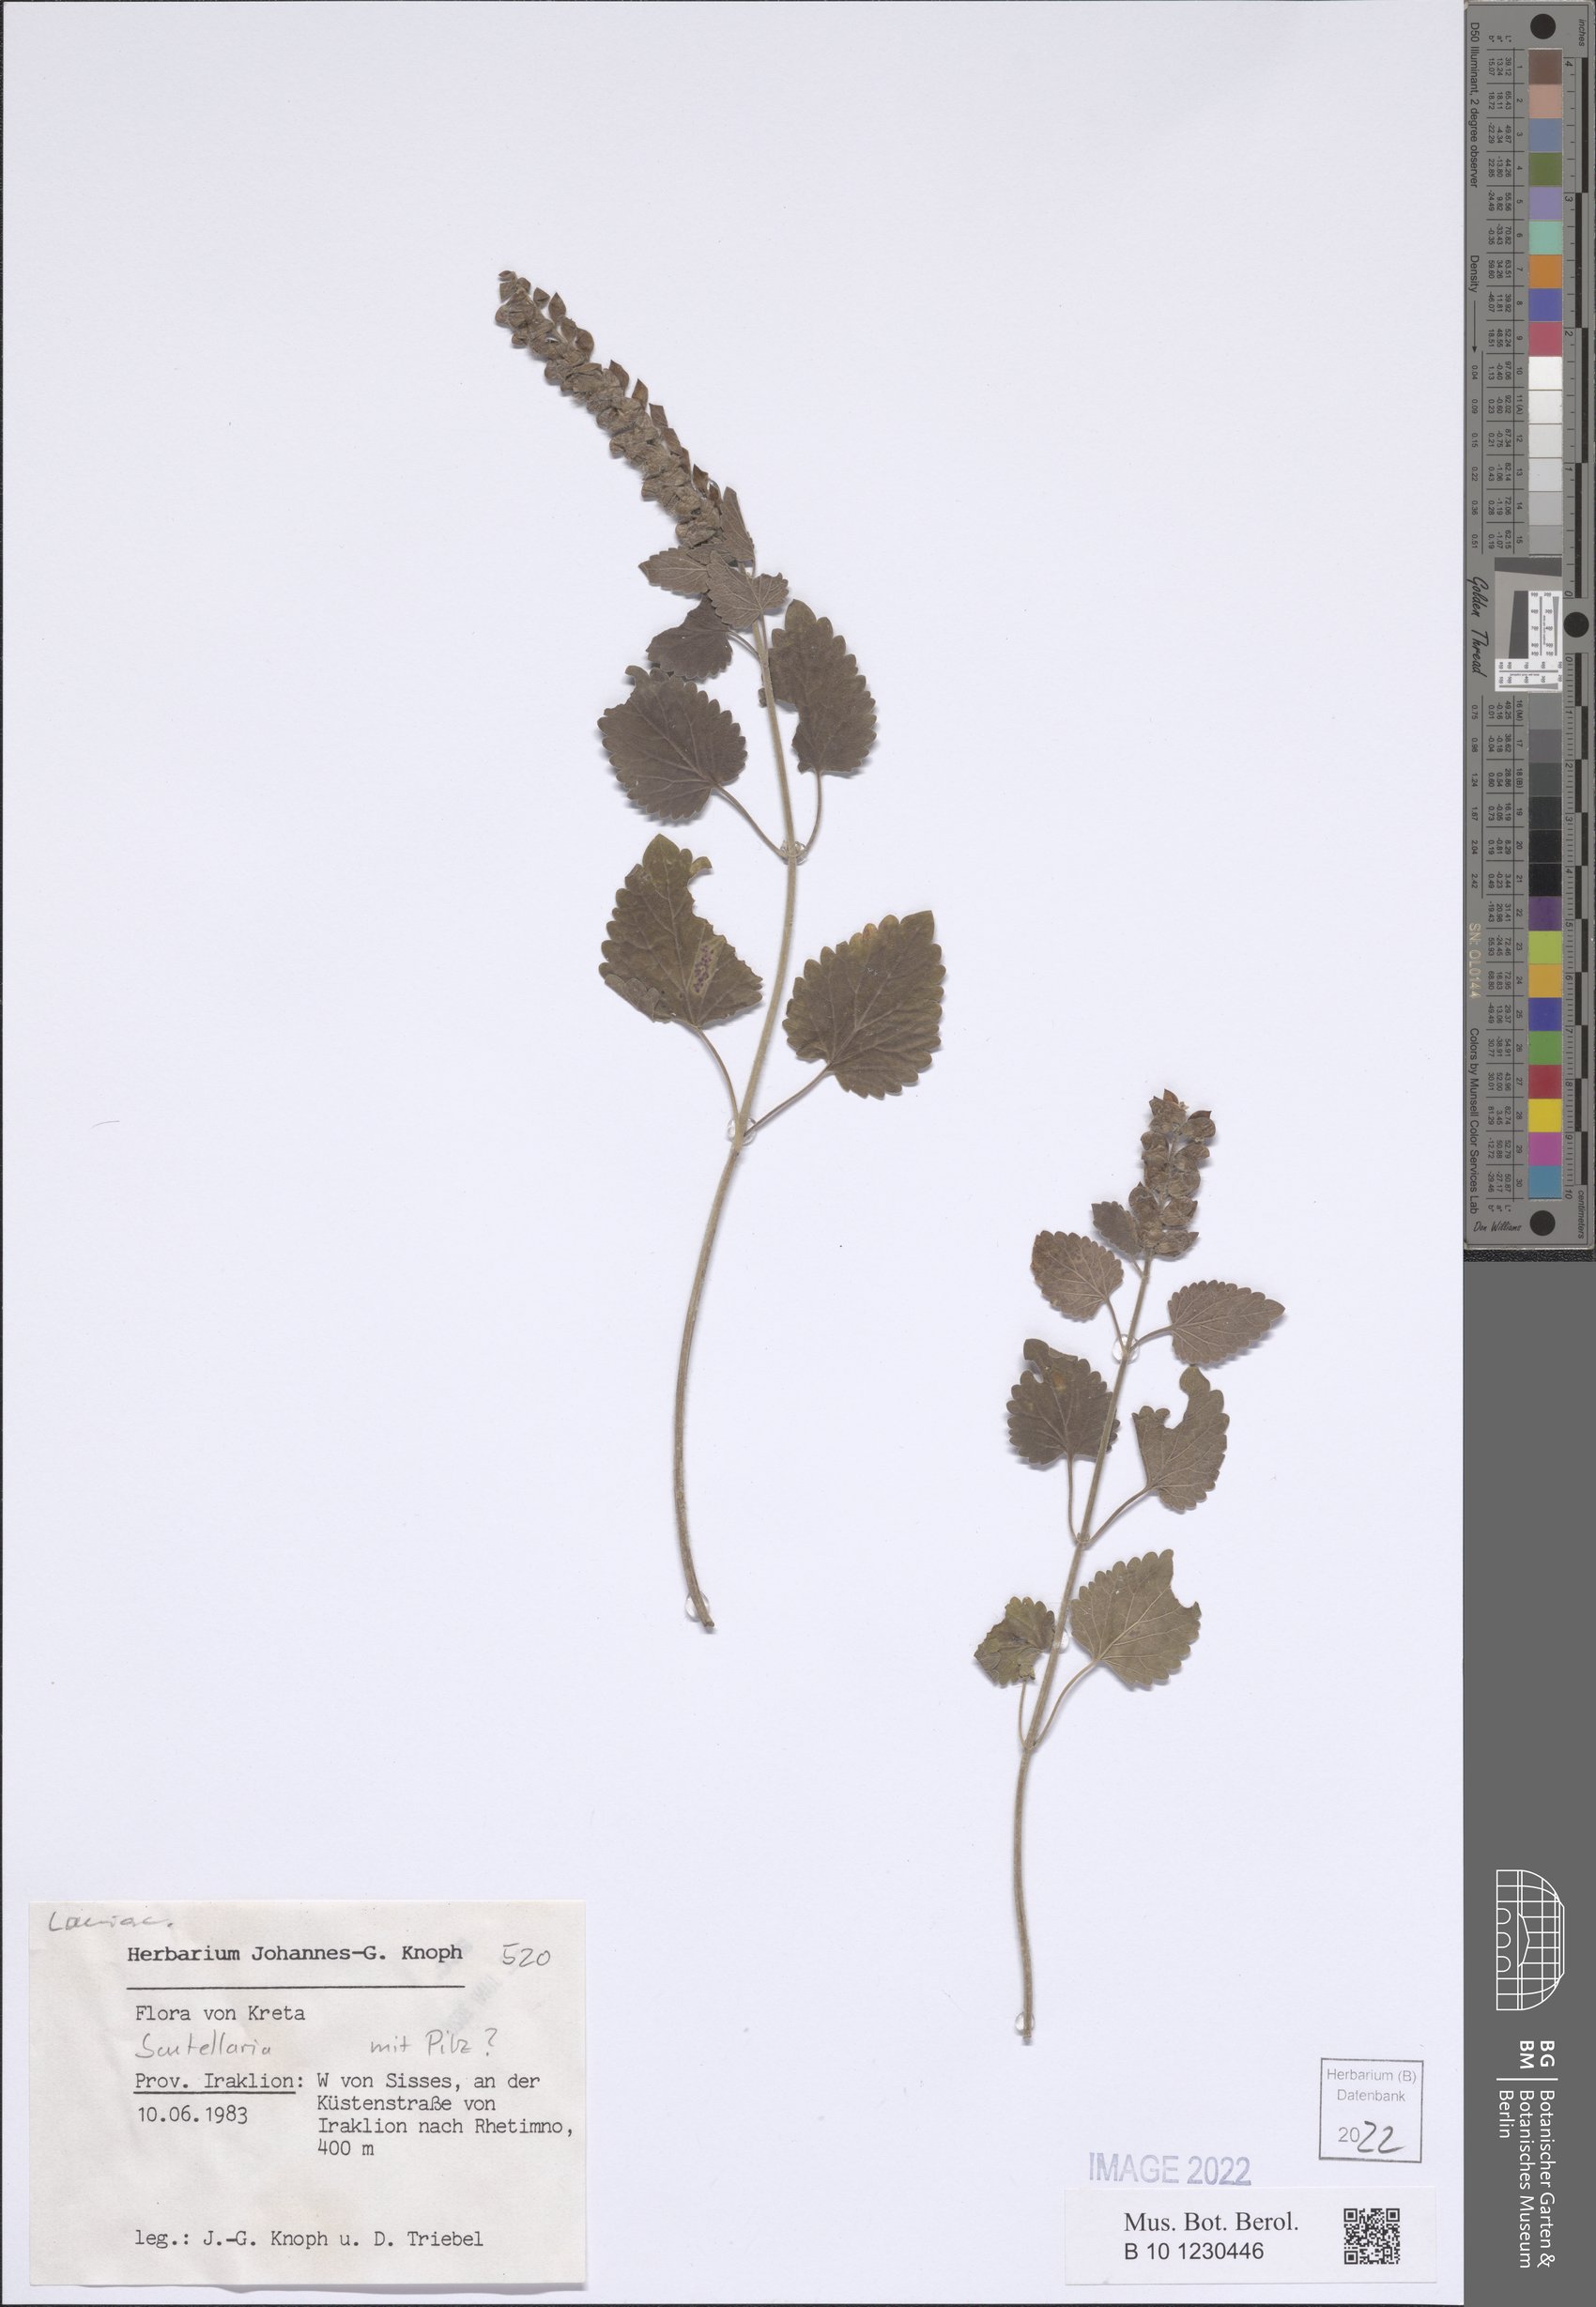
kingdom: Plantae
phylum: Tracheophyta
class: Magnoliopsida
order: Lamiales
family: Lamiaceae
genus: Scutellaria
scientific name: Scutellaria
